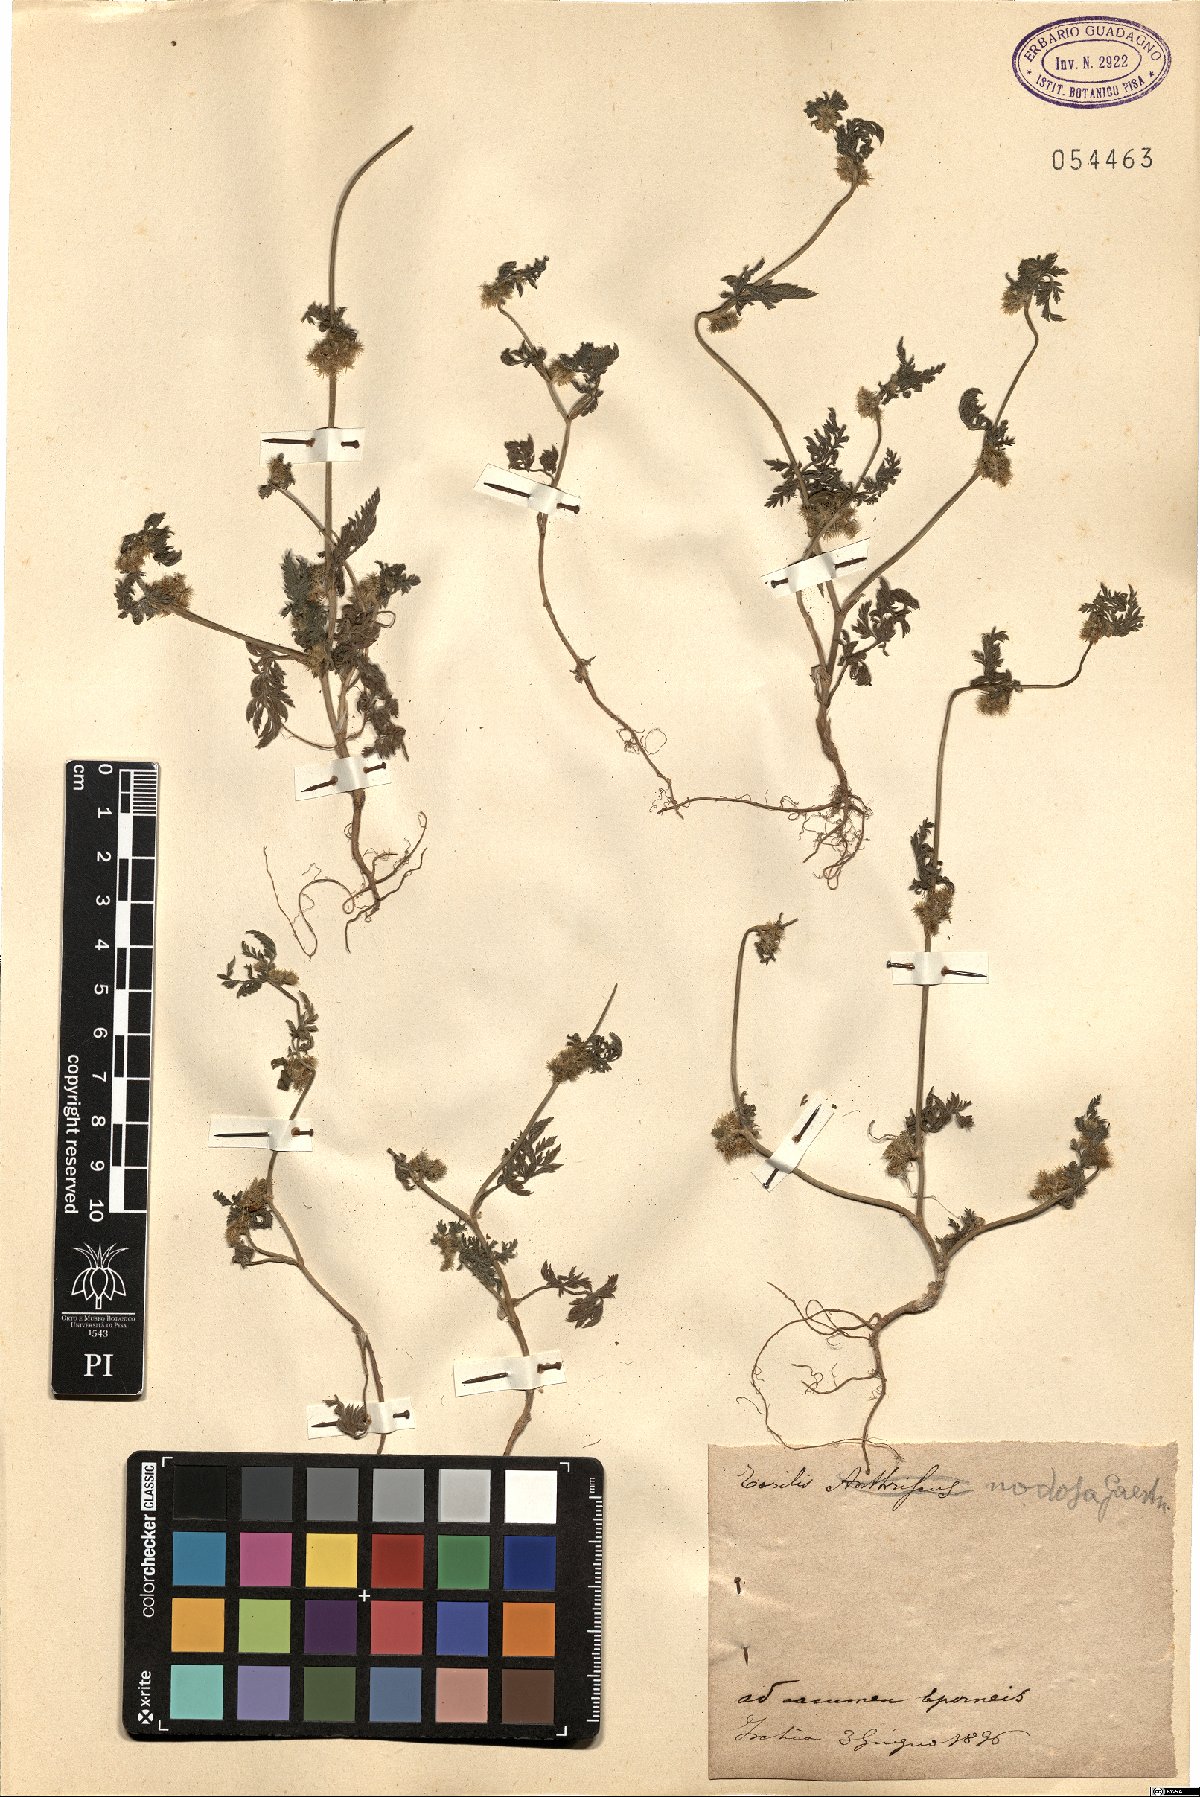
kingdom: Plantae
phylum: Tracheophyta
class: Magnoliopsida
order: Apiales
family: Apiaceae
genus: Torilis
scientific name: Torilis nodosa
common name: Knotted hedge-parsley
